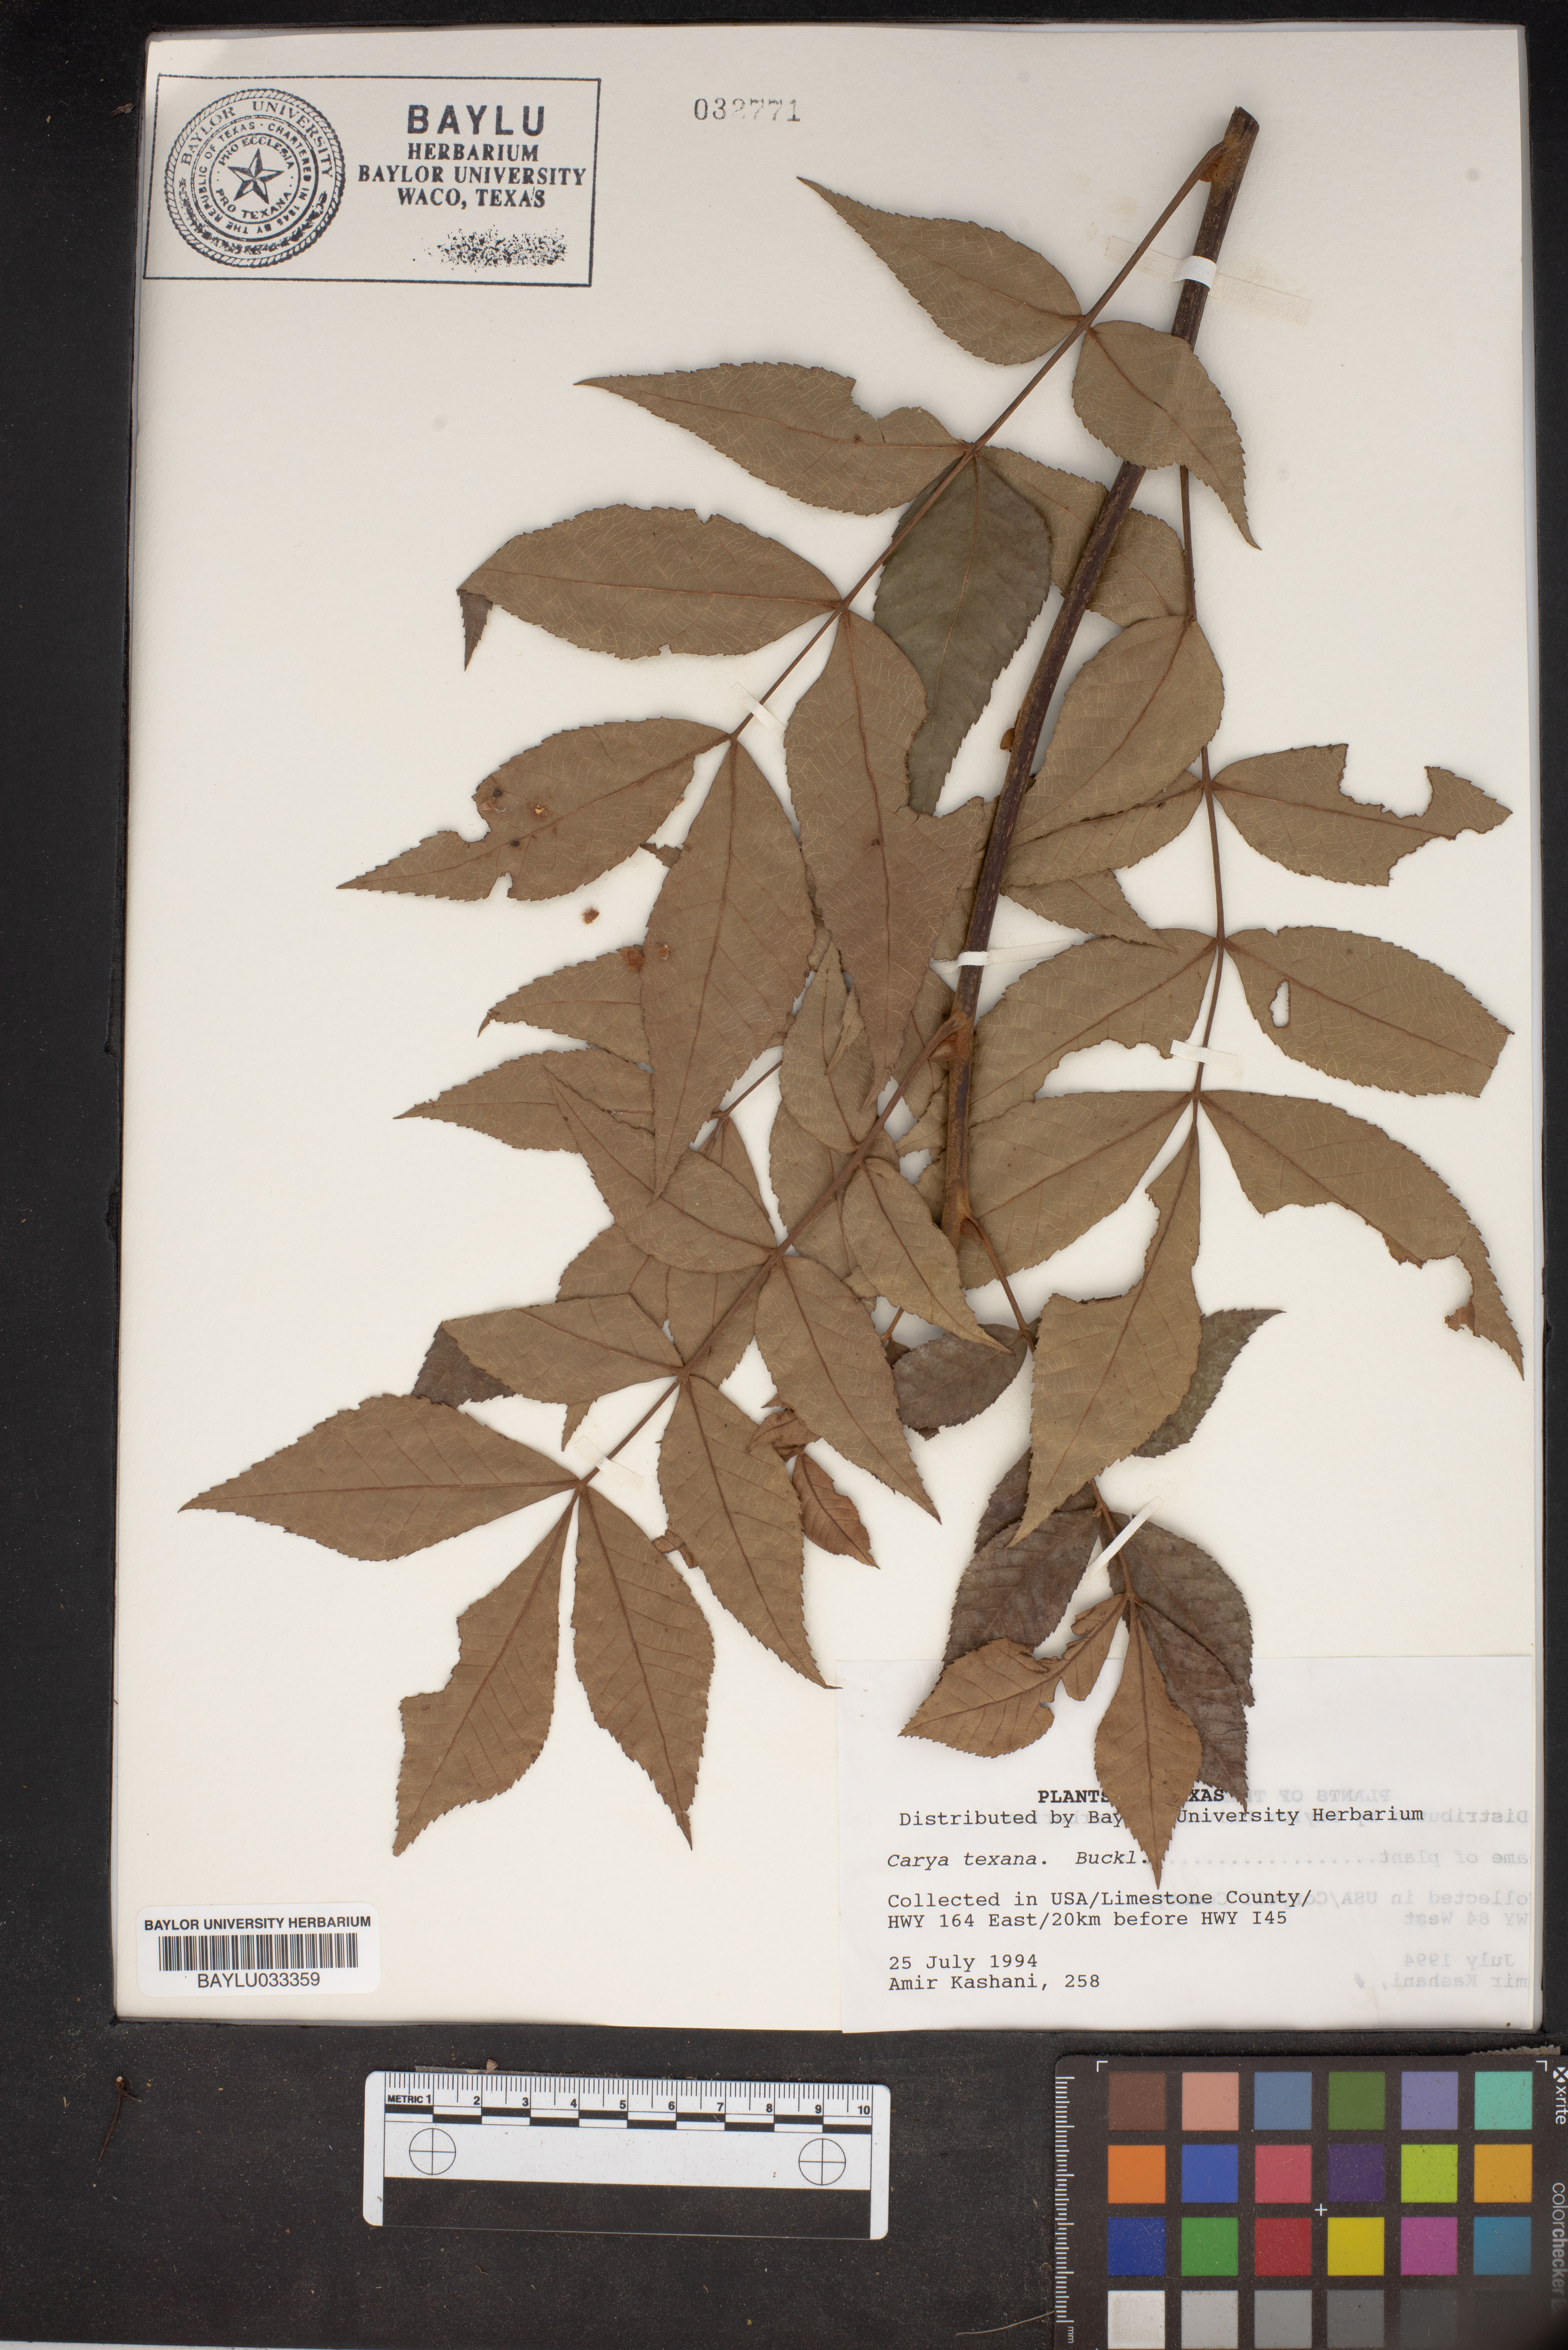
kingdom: Plantae
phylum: Tracheophyta
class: Magnoliopsida
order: Fagales
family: Juglandaceae
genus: Carya
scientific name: Carya texana
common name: Black hickory
